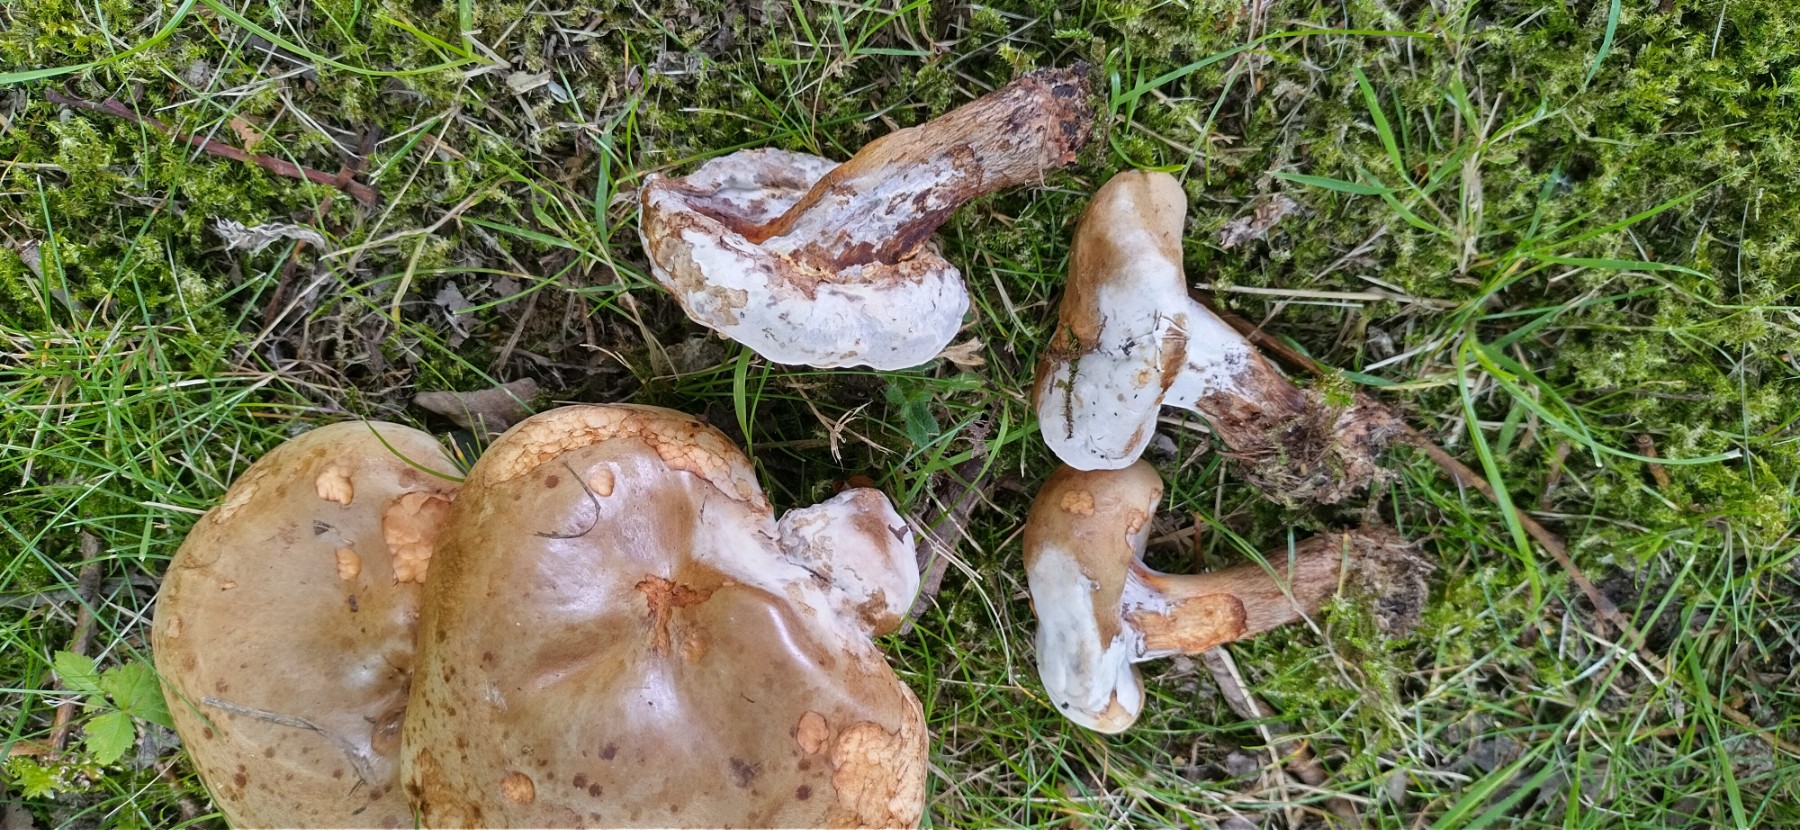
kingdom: Fungi
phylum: Ascomycota
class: Sordariomycetes
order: Hypocreales
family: Hypocreaceae
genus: Hypomyces
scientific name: Hypomyces
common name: snylteskorpe
